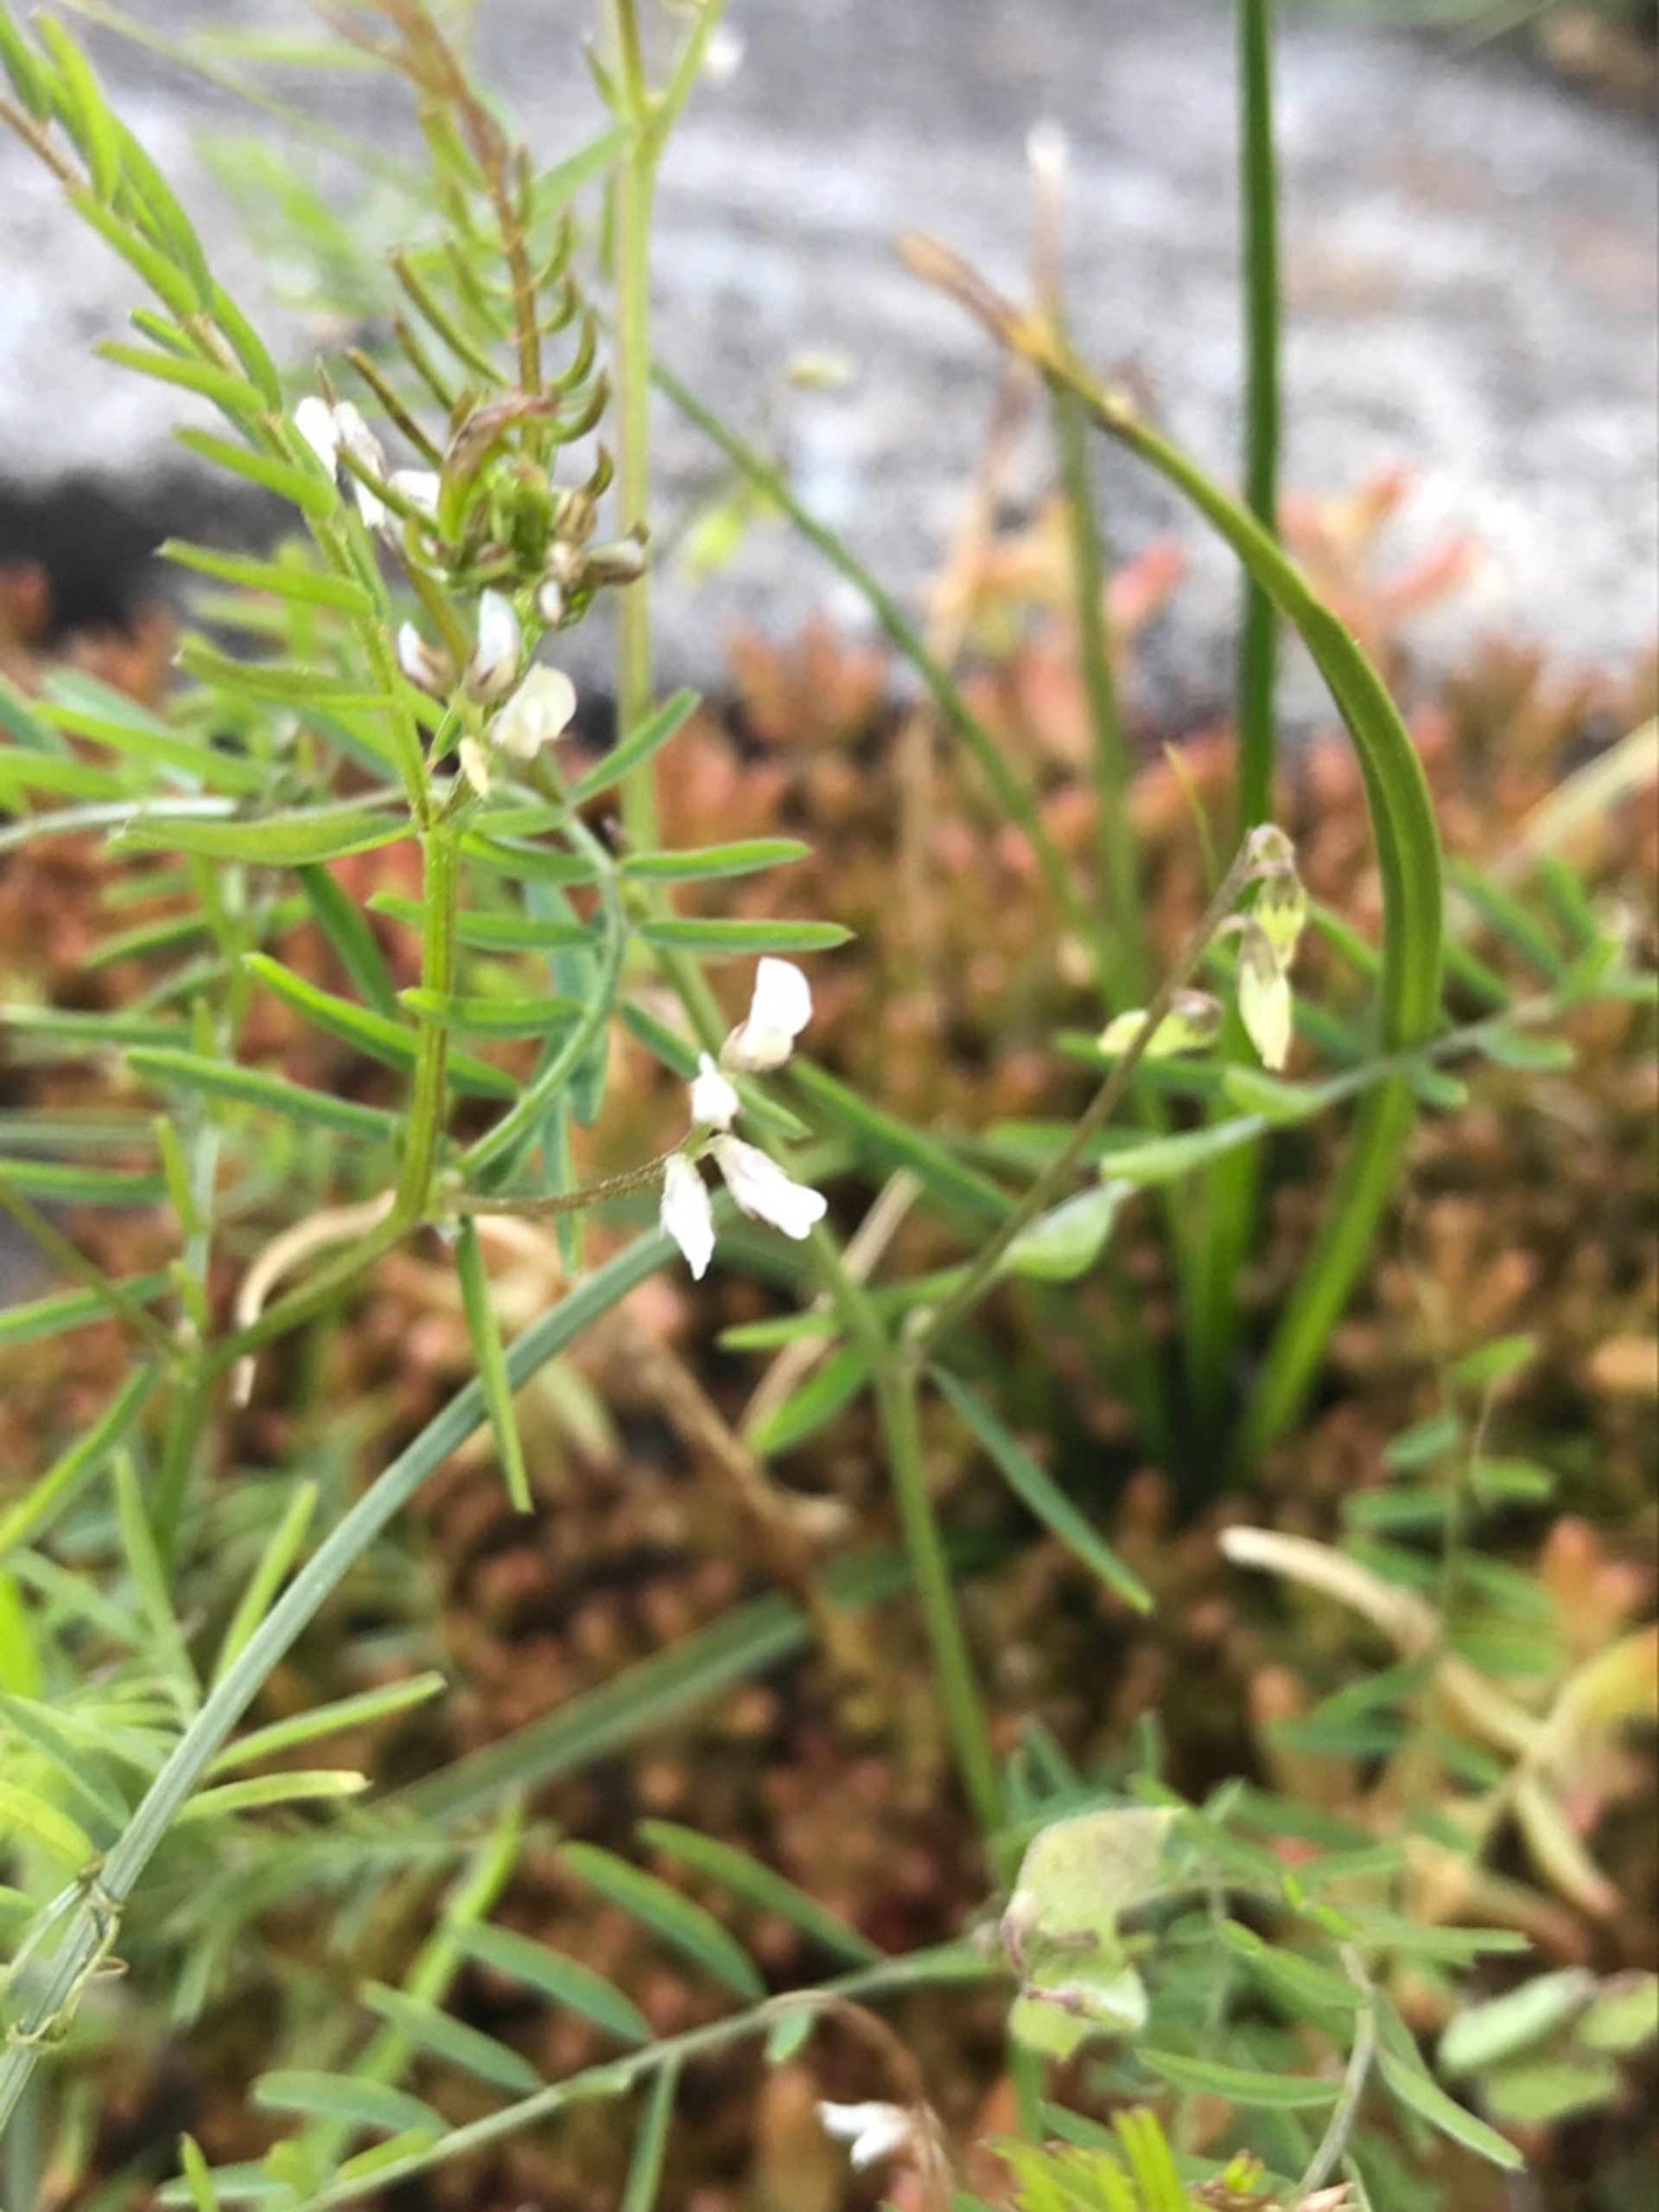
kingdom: Plantae
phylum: Tracheophyta
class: Magnoliopsida
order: Fabales
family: Fabaceae
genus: Vicia
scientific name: Vicia hirsuta
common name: Tofrøet vikke
